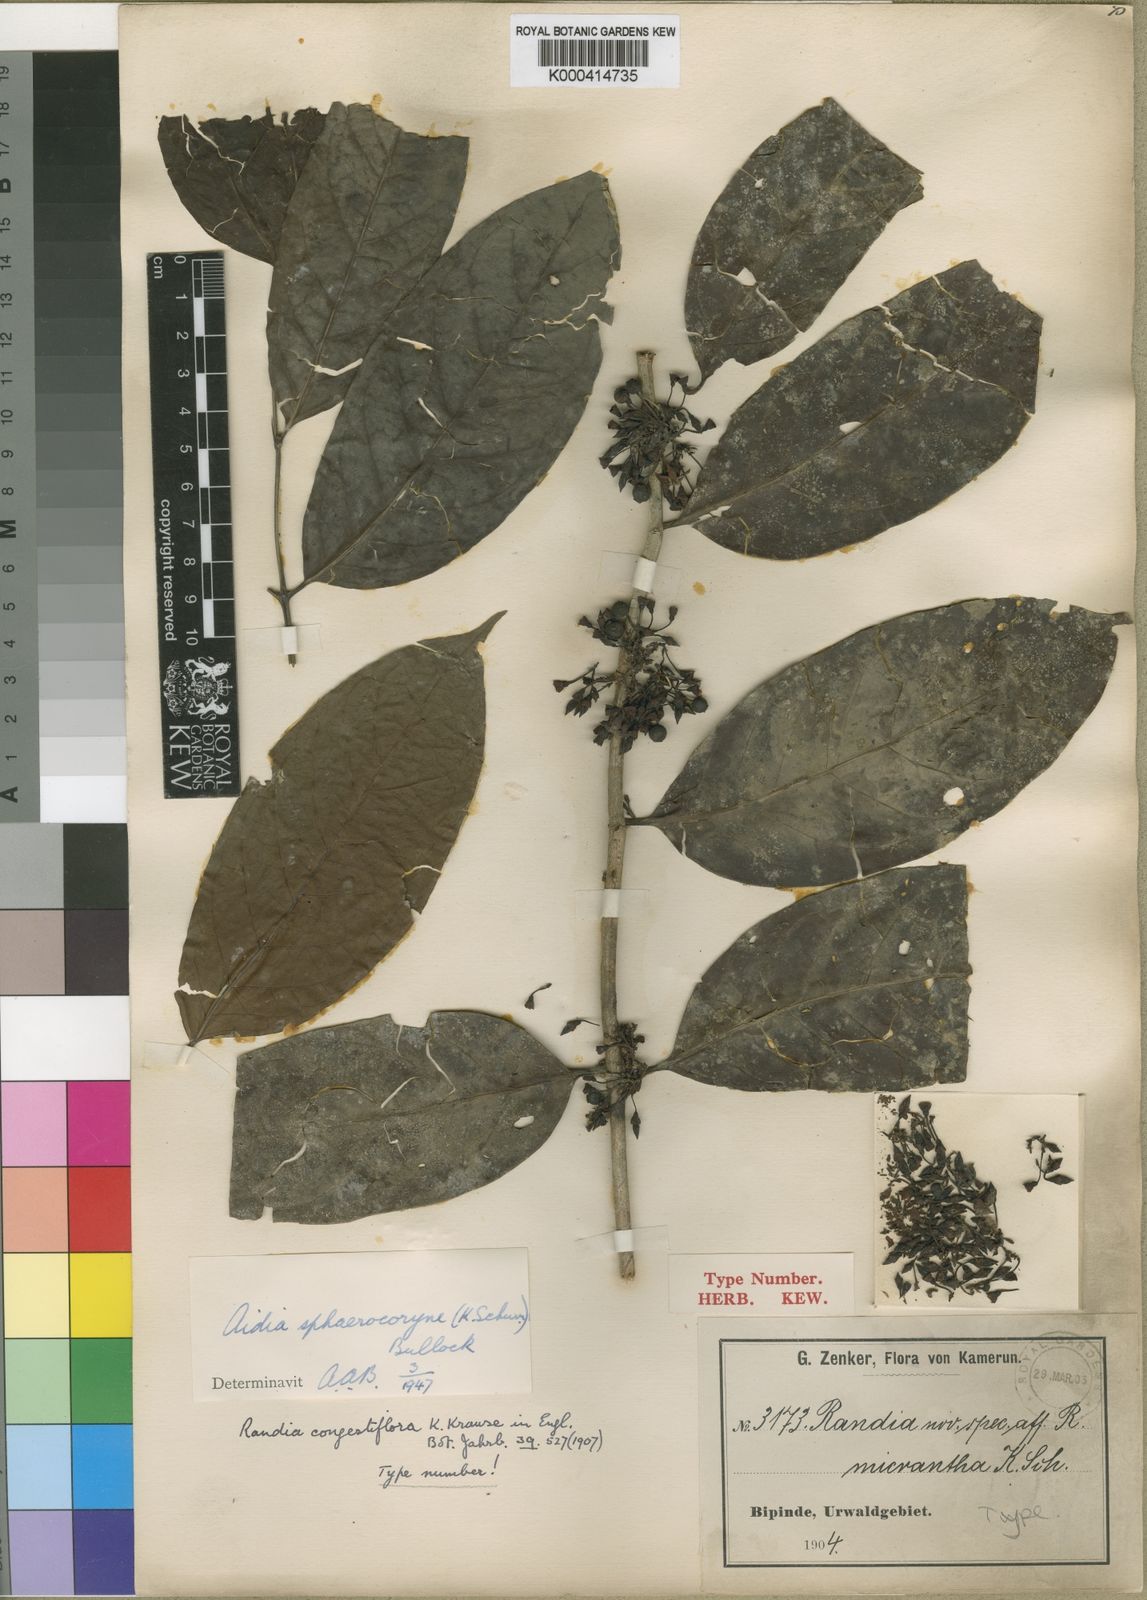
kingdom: Plantae
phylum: Tracheophyta
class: Magnoliopsida
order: Gentianales
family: Rubiaceae
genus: Aidia
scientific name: Aidia micrantha
